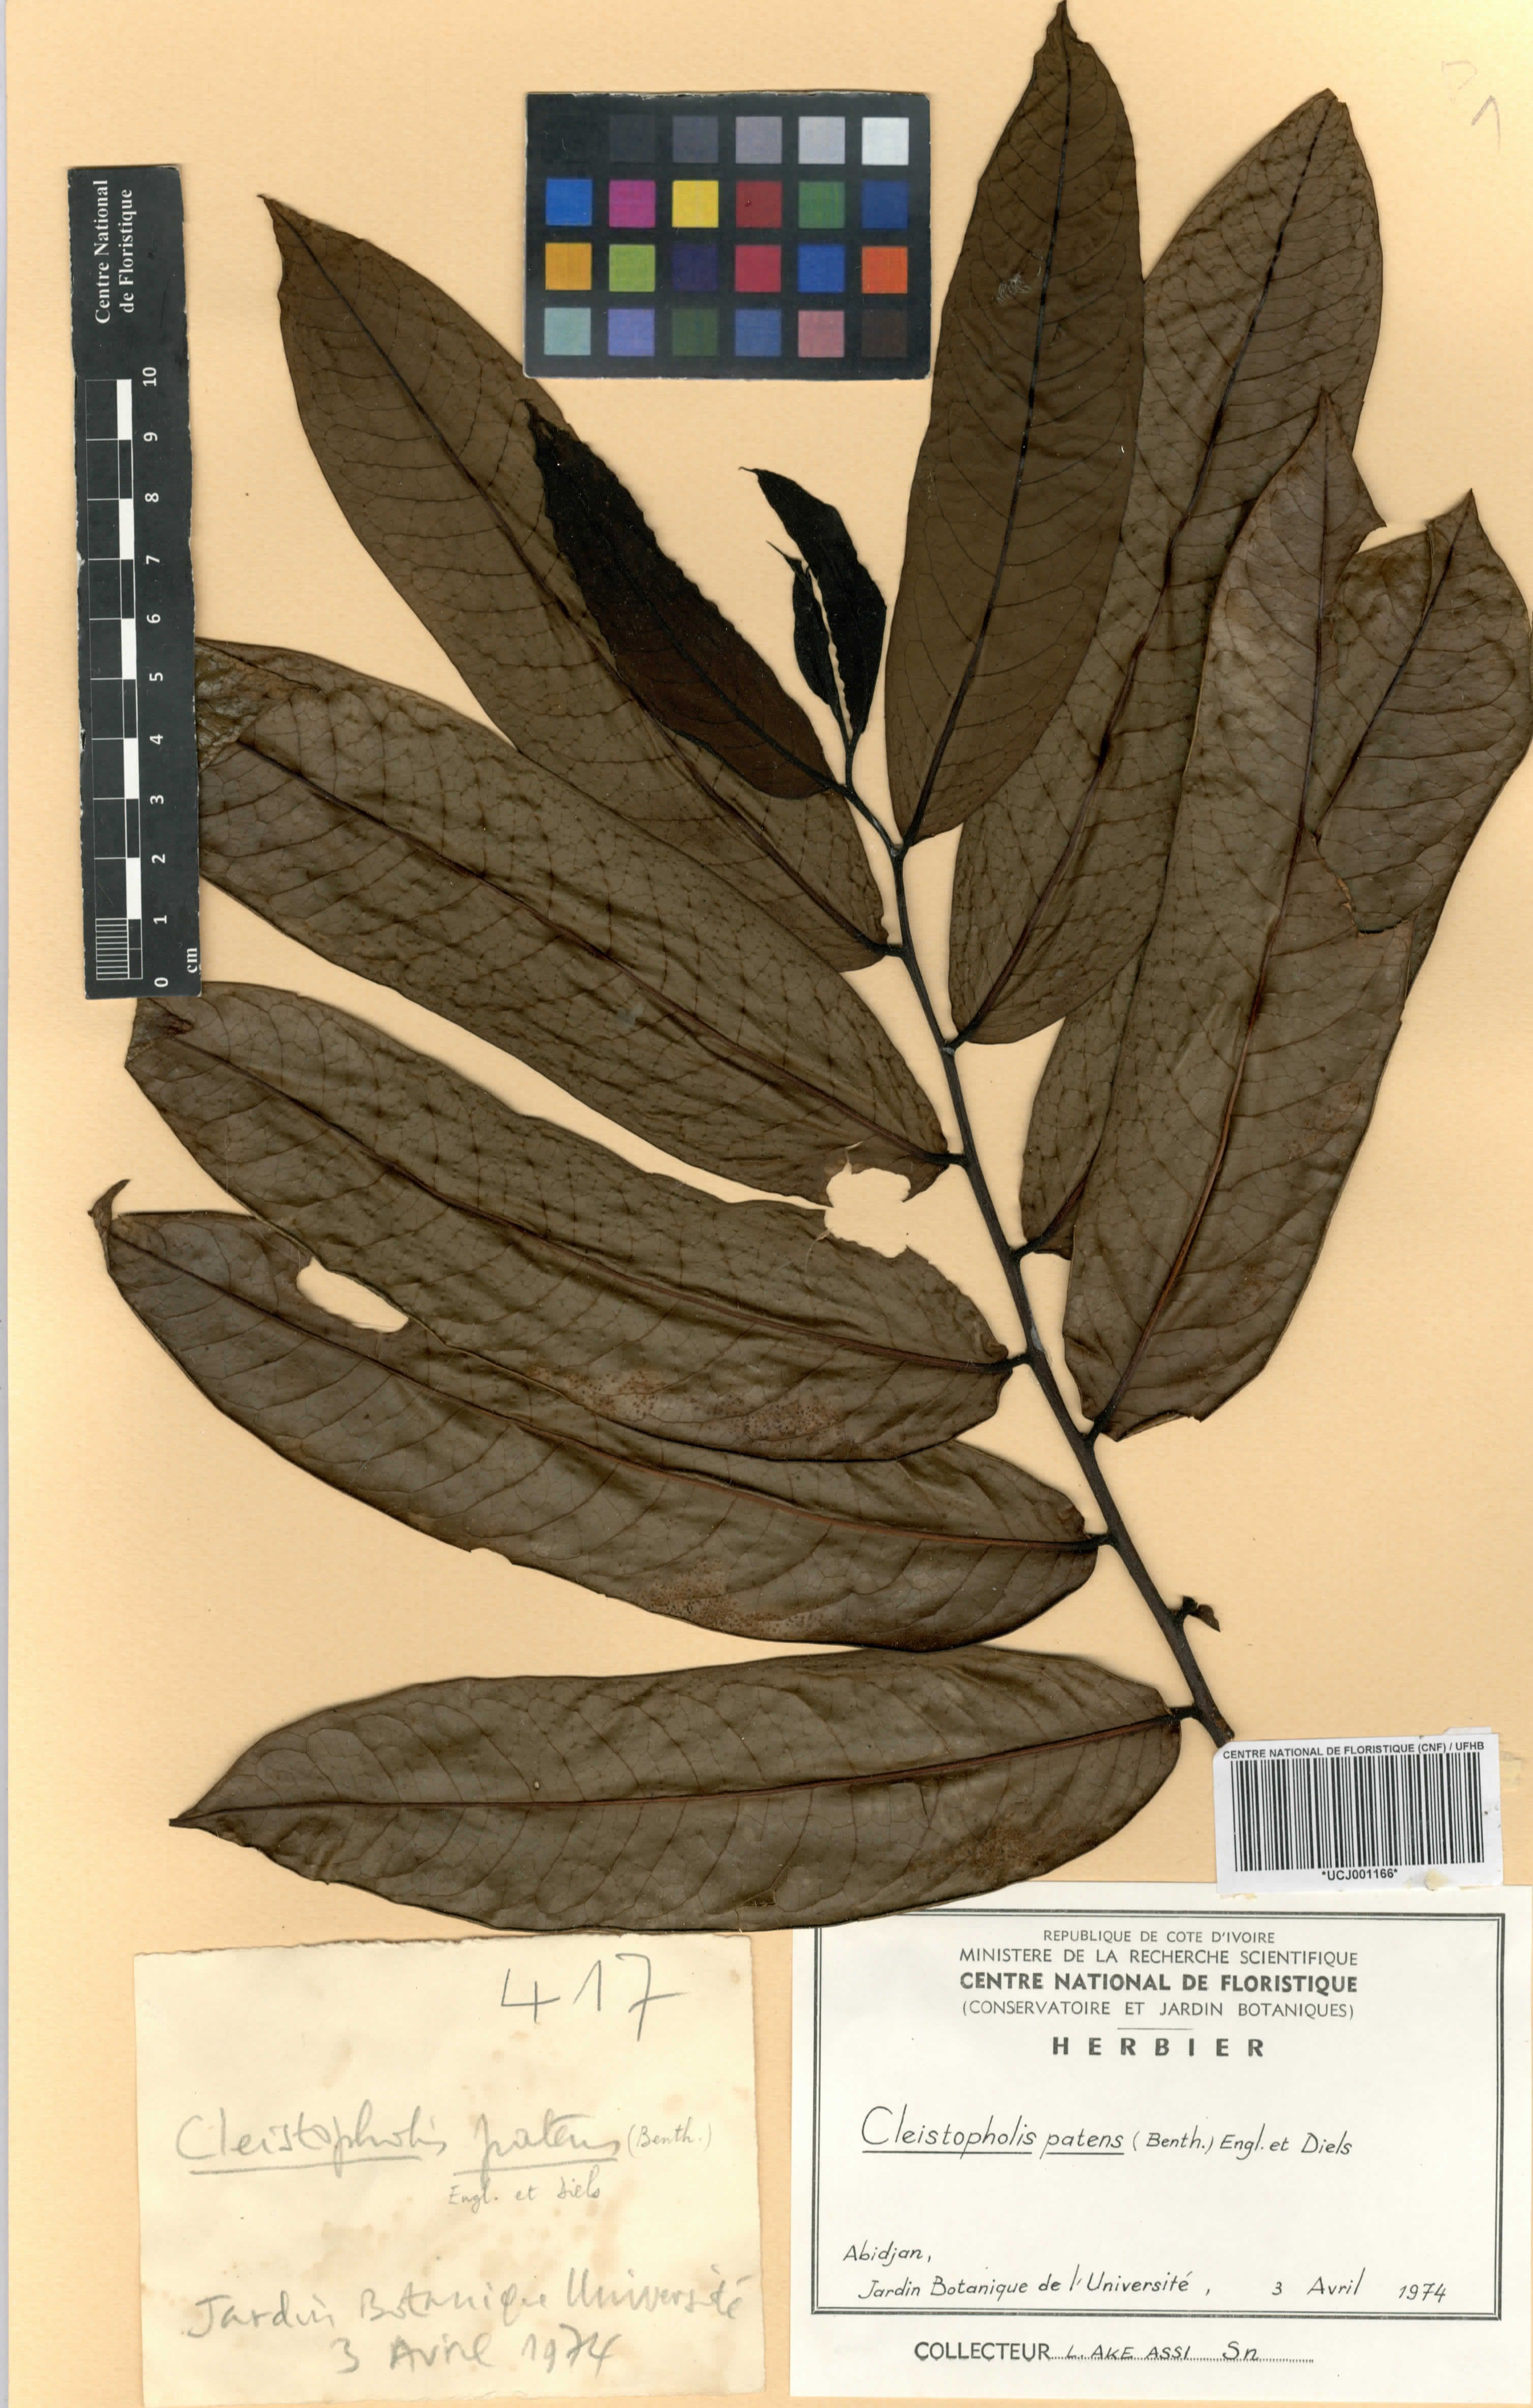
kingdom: Plantae
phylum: Tracheophyta
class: Magnoliopsida
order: Magnoliales
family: Annonaceae
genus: Cleistopholis
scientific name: Cleistopholis patens
